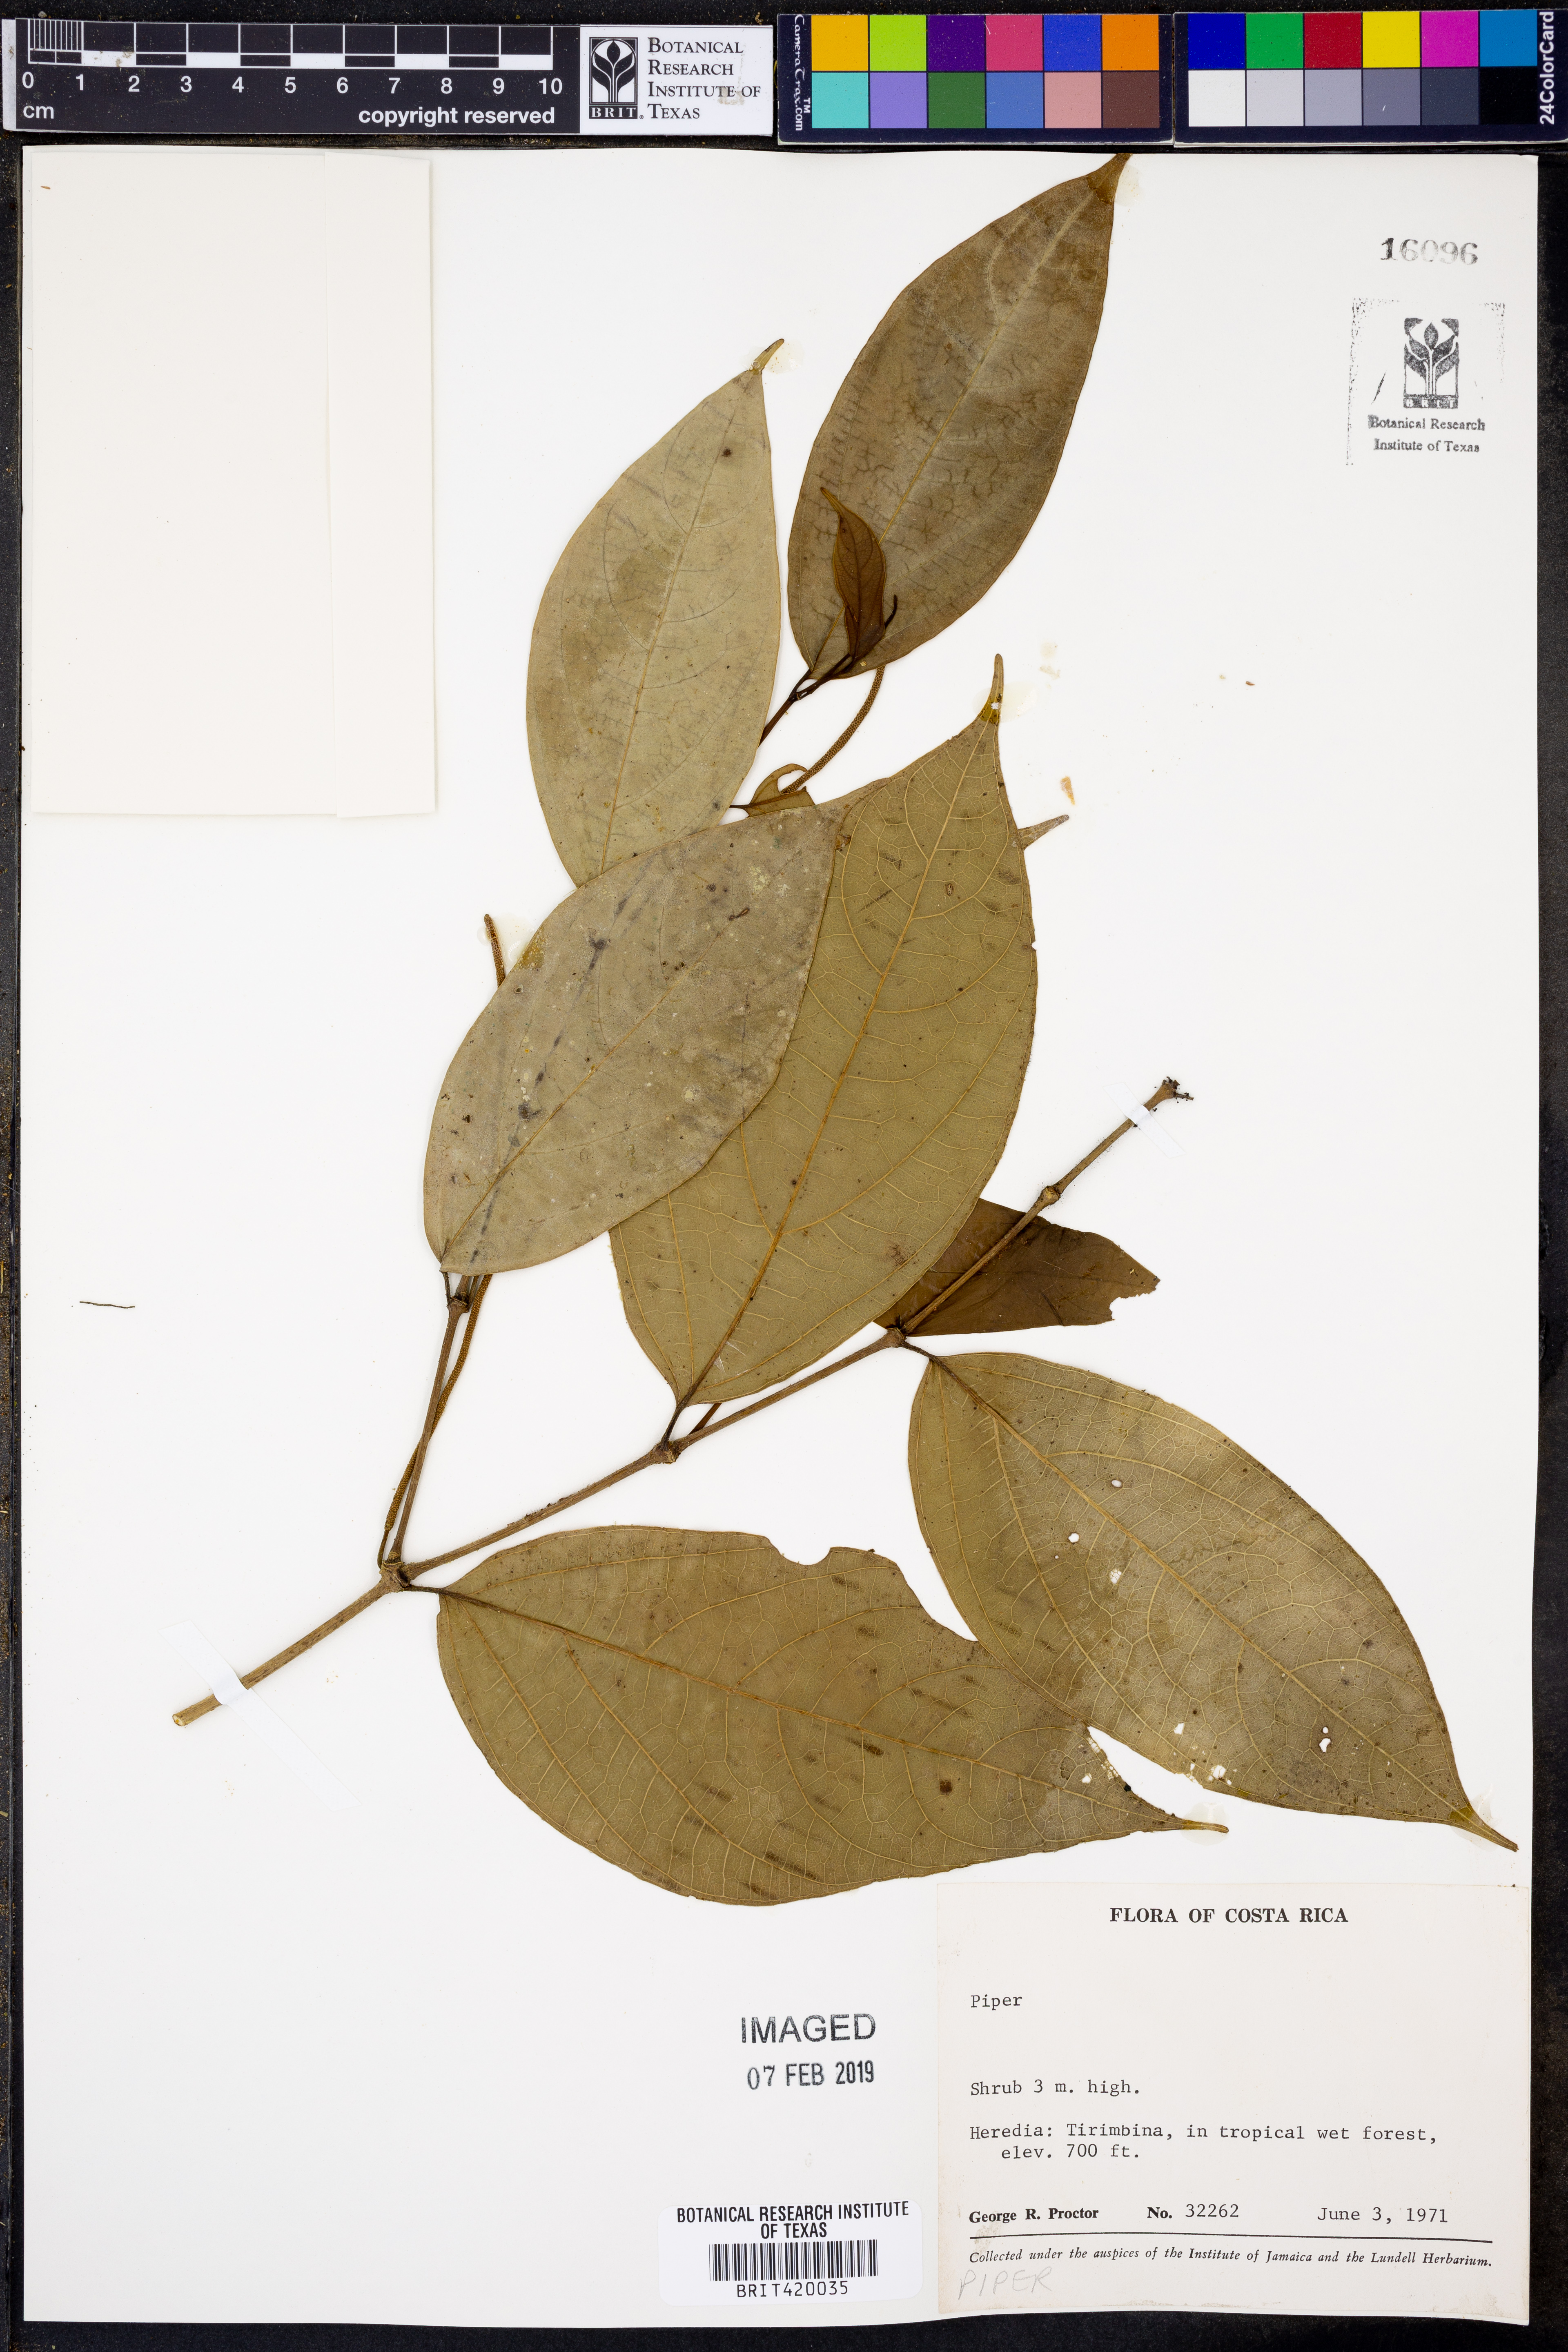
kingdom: Plantae
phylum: Tracheophyta
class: Magnoliopsida
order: Piperales
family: Piperaceae
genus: Piper
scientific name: Piper
